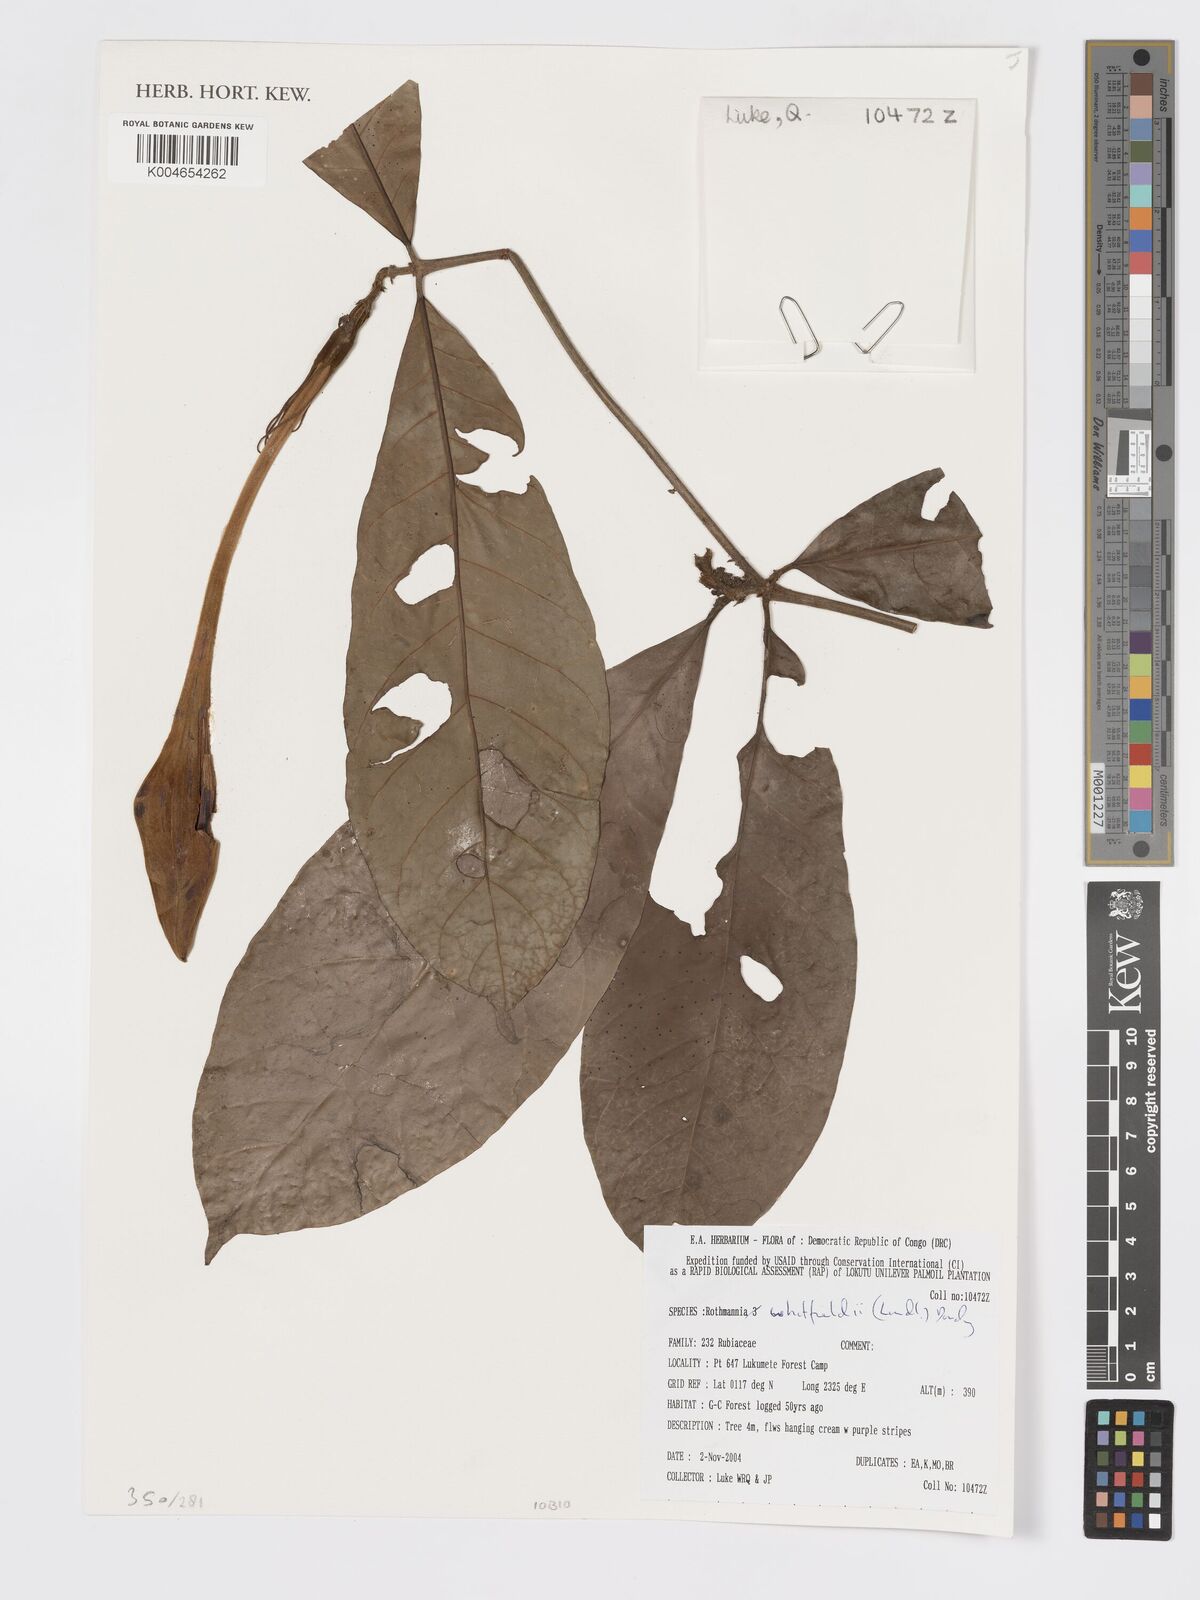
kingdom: Plantae
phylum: Tracheophyta
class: Magnoliopsida
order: Gentianales
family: Rubiaceae
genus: Rothmannia
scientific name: Rothmannia whitfieldii
